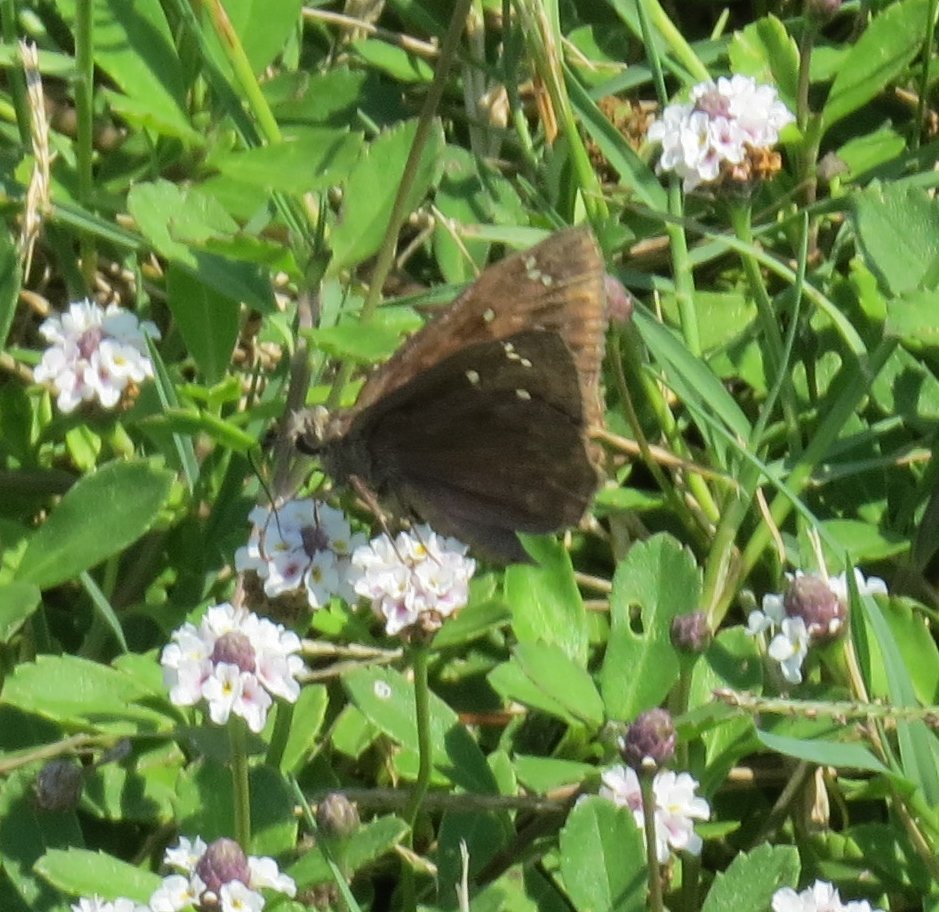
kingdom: Animalia
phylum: Arthropoda
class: Insecta
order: Lepidoptera
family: Hesperiidae
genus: Gesta
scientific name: Gesta
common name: Horace's Duskywing
